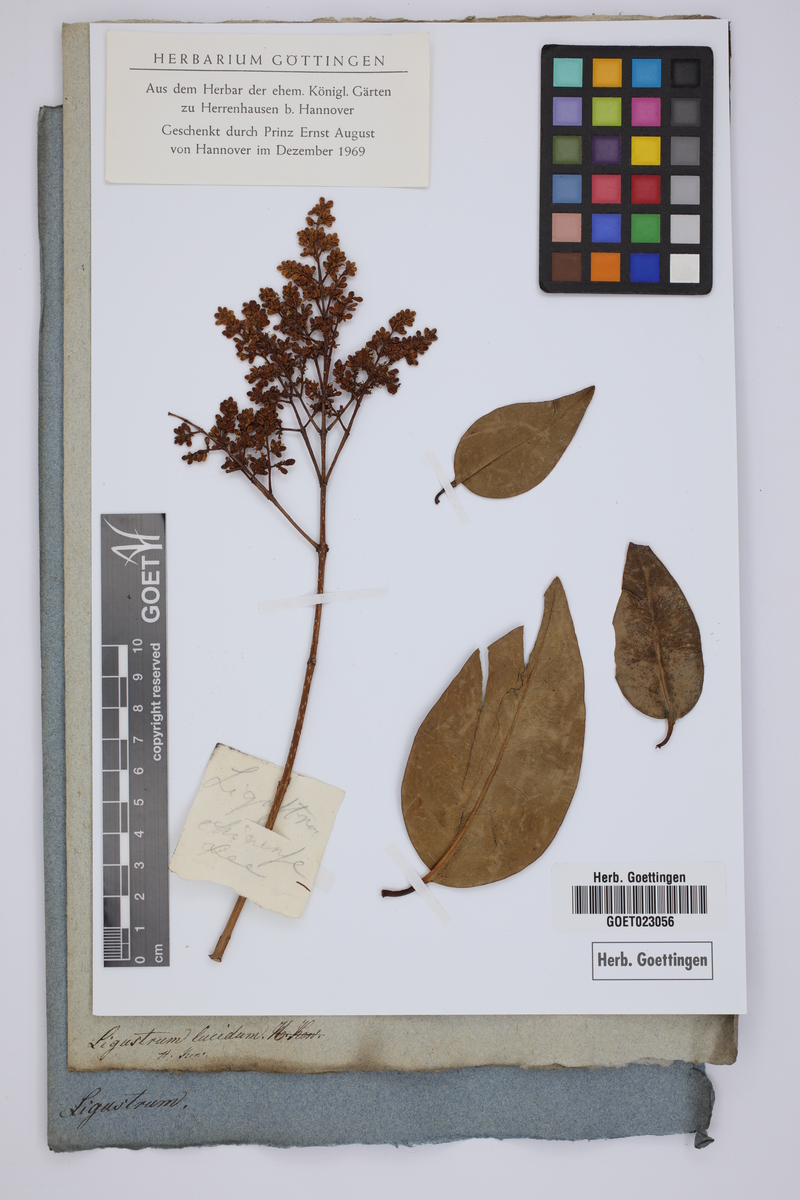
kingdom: Plantae
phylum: Tracheophyta
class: Magnoliopsida
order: Lamiales
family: Oleaceae
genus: Ligustrum
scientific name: Ligustrum lucidum
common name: Glossy privet
